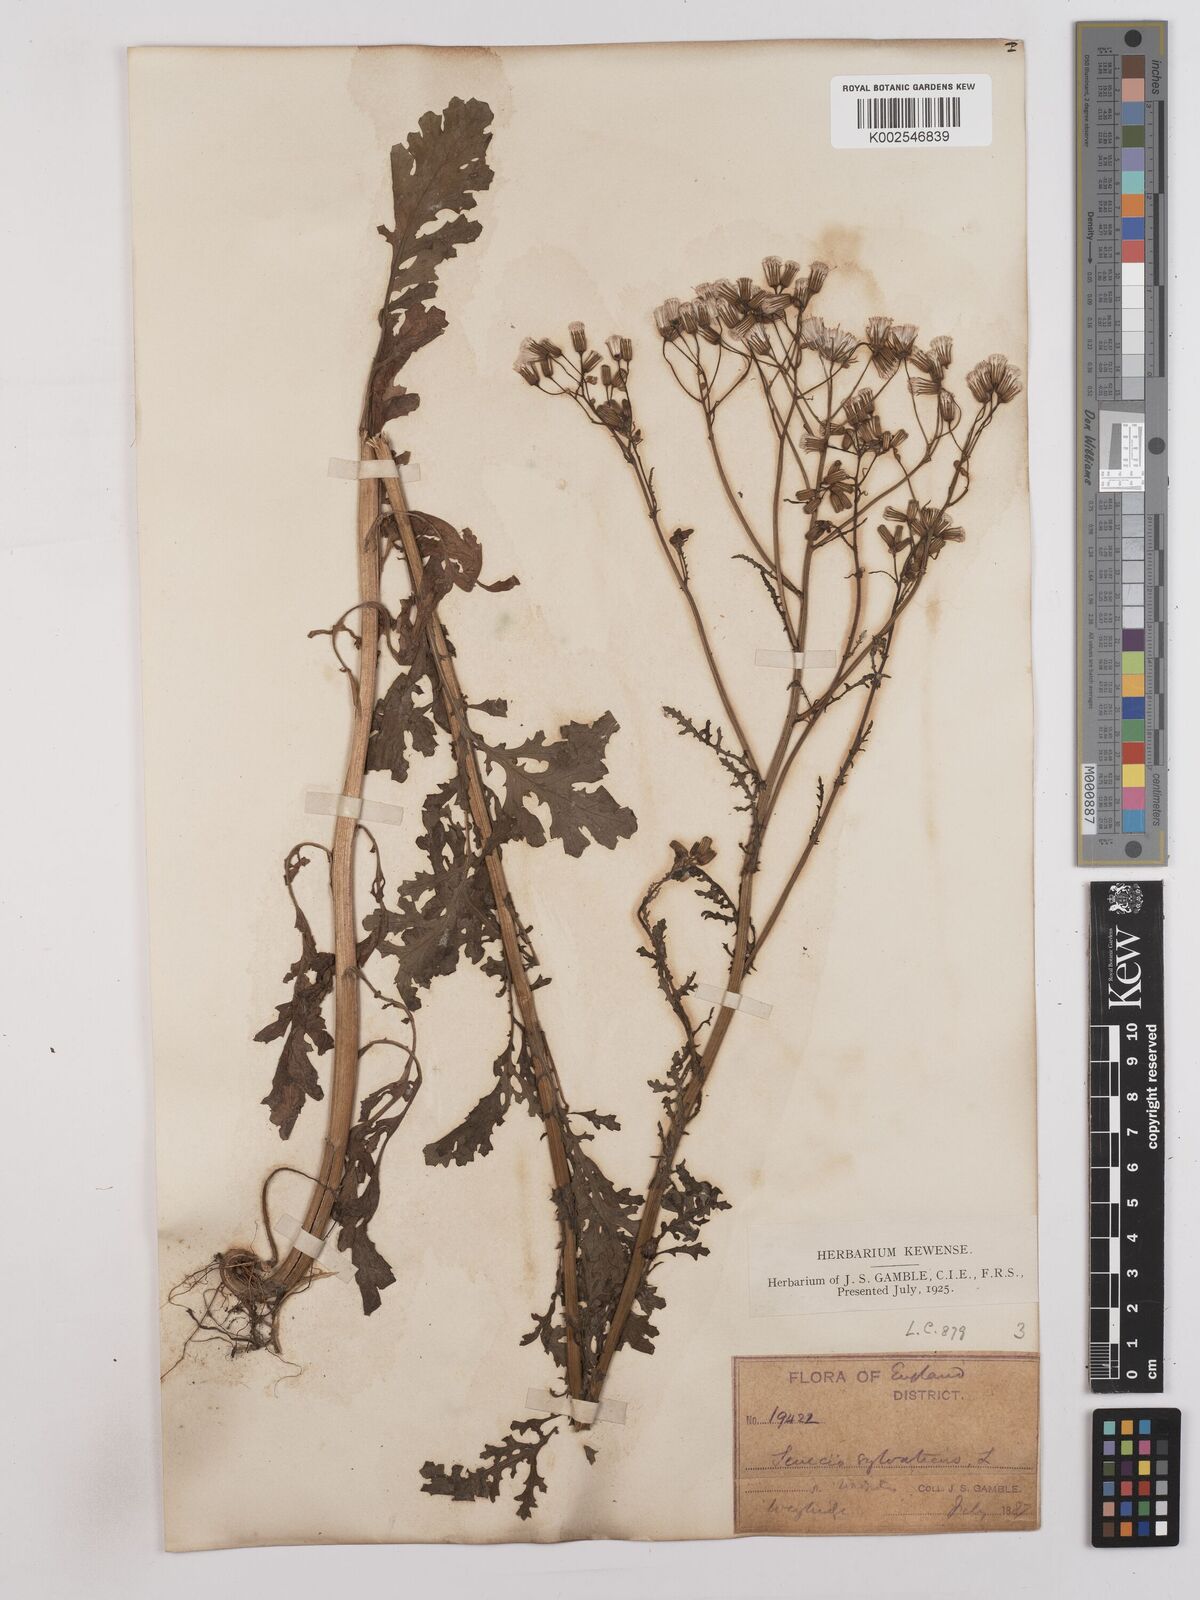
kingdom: Plantae
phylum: Tracheophyta
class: Magnoliopsida
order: Asterales
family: Asteraceae
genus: Senecio
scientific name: Senecio sylvaticus
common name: Woodland ragwort
